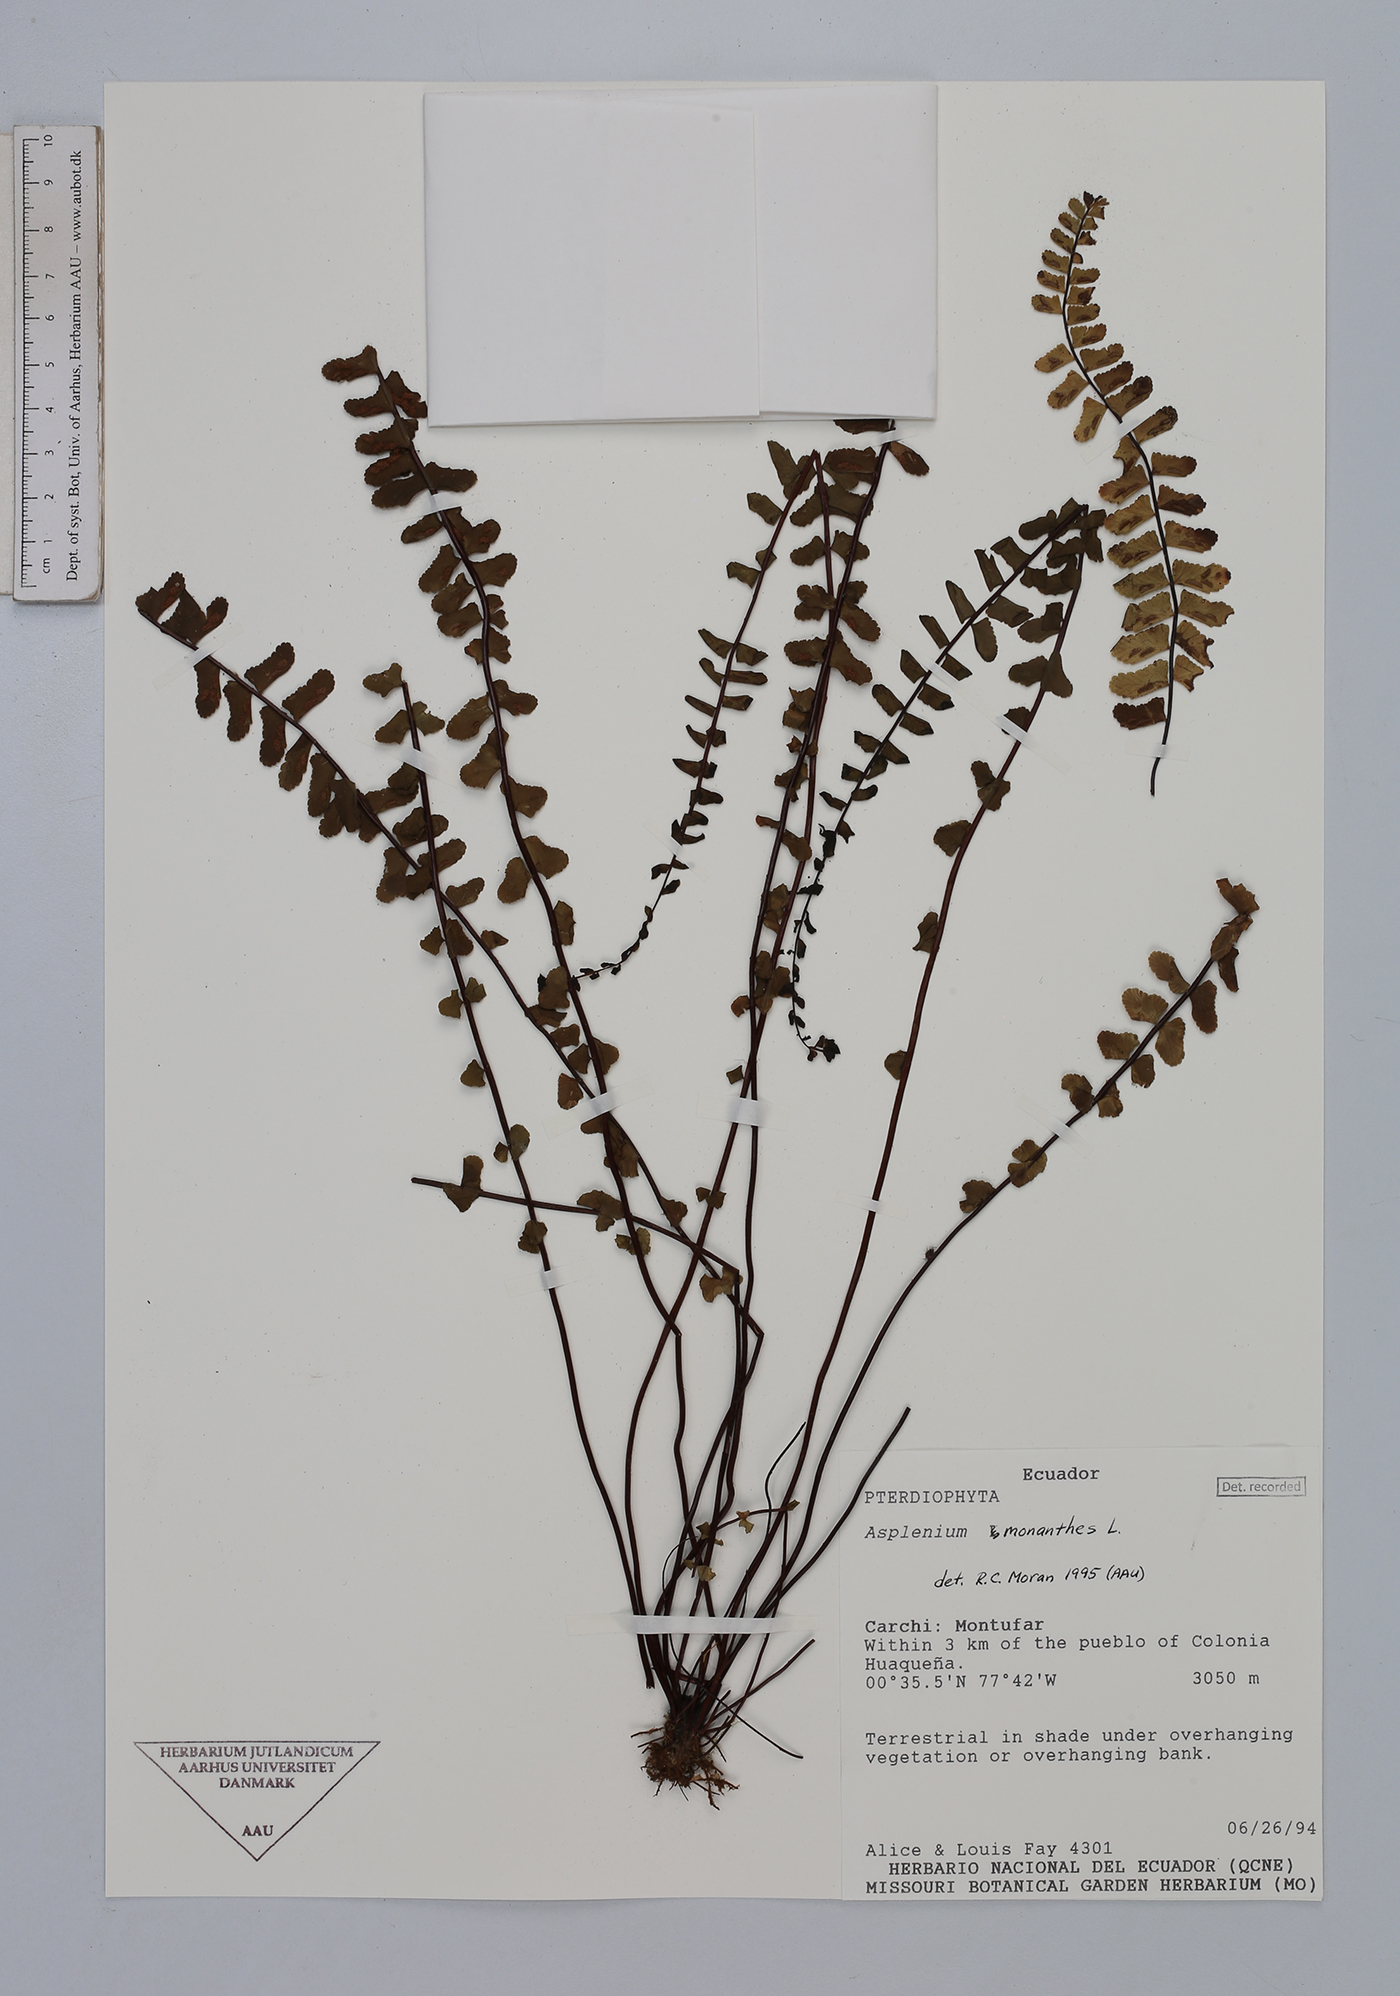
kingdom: Plantae
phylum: Tracheophyta
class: Polypodiopsida
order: Polypodiales
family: Aspleniaceae
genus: Asplenium
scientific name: Asplenium monanthes
